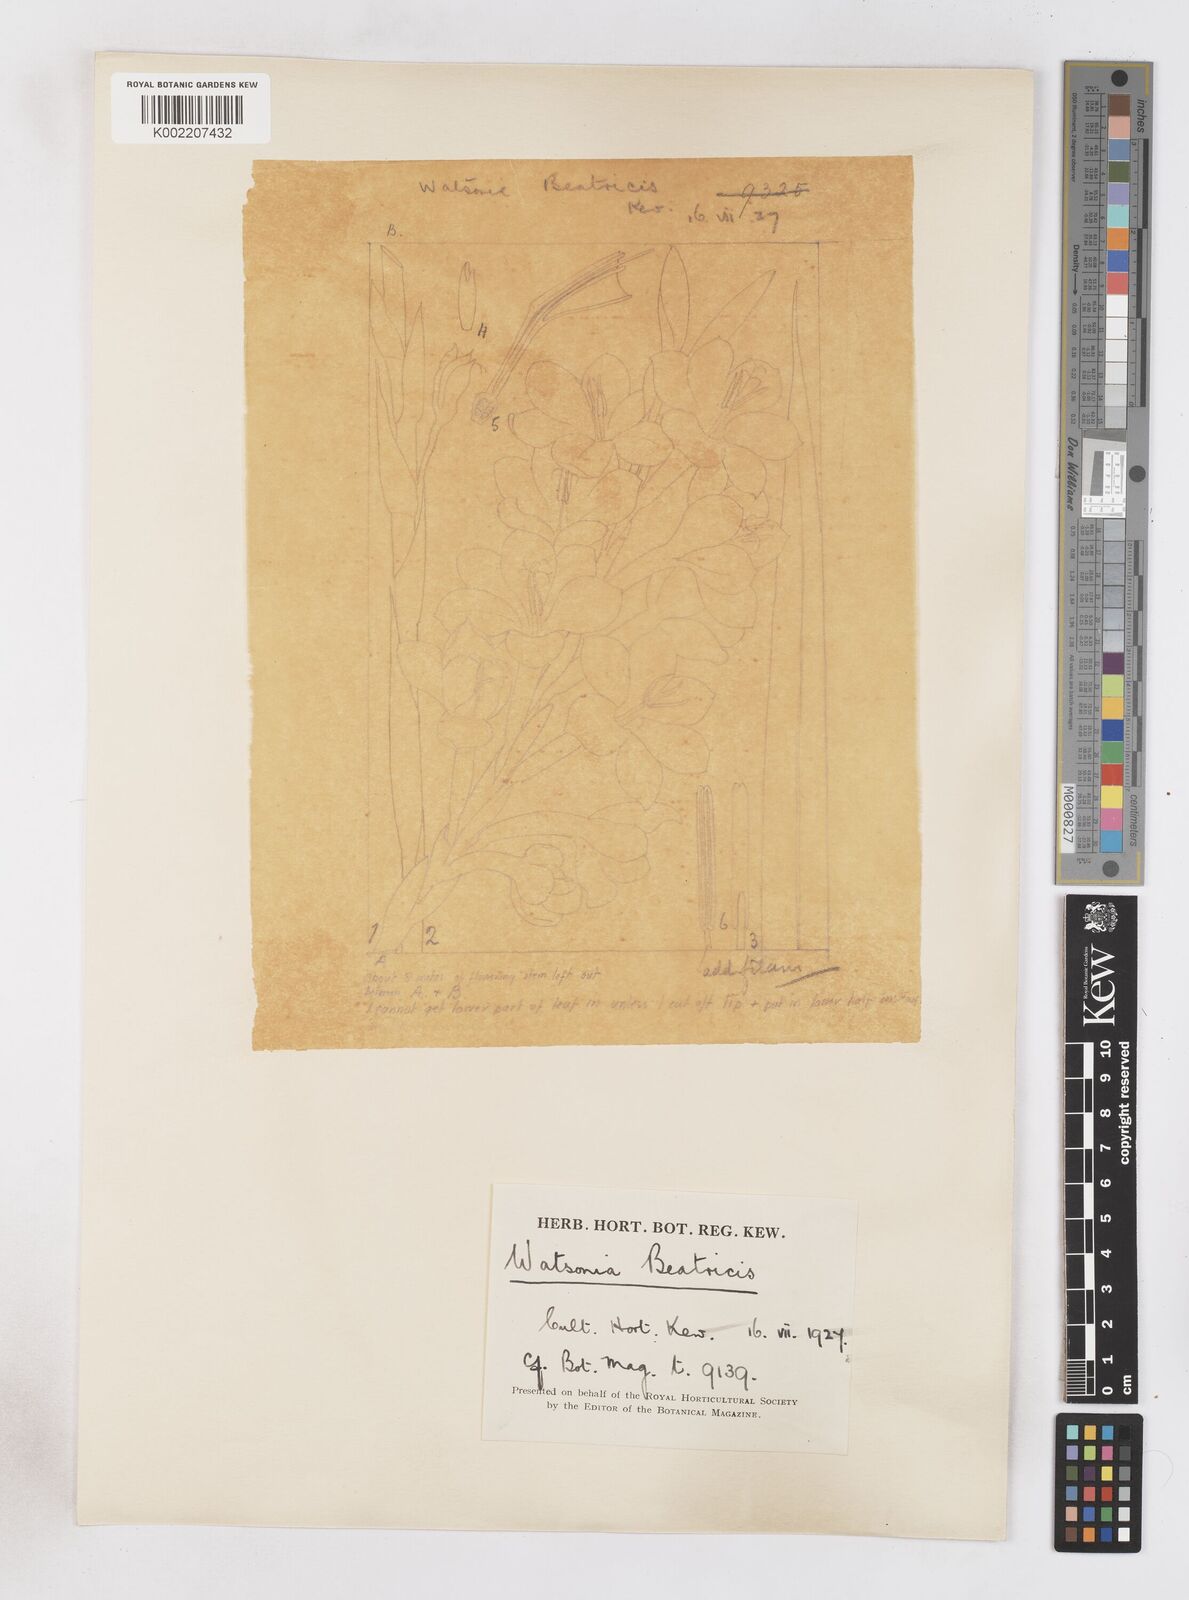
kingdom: Plantae
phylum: Tracheophyta
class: Liliopsida
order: Asparagales
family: Iridaceae
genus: Watsonia
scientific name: Watsonia pillansii
